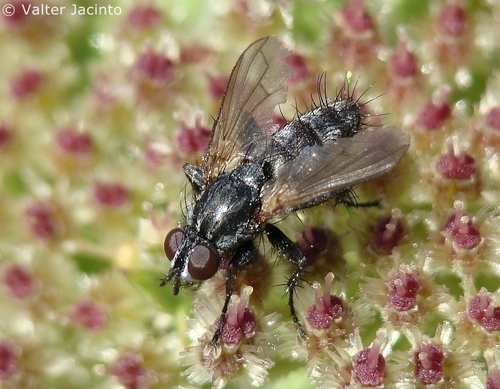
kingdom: Animalia
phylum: Arthropoda
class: Insecta
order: Diptera
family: Calliphoridae
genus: Stevenia
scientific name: Stevenia
